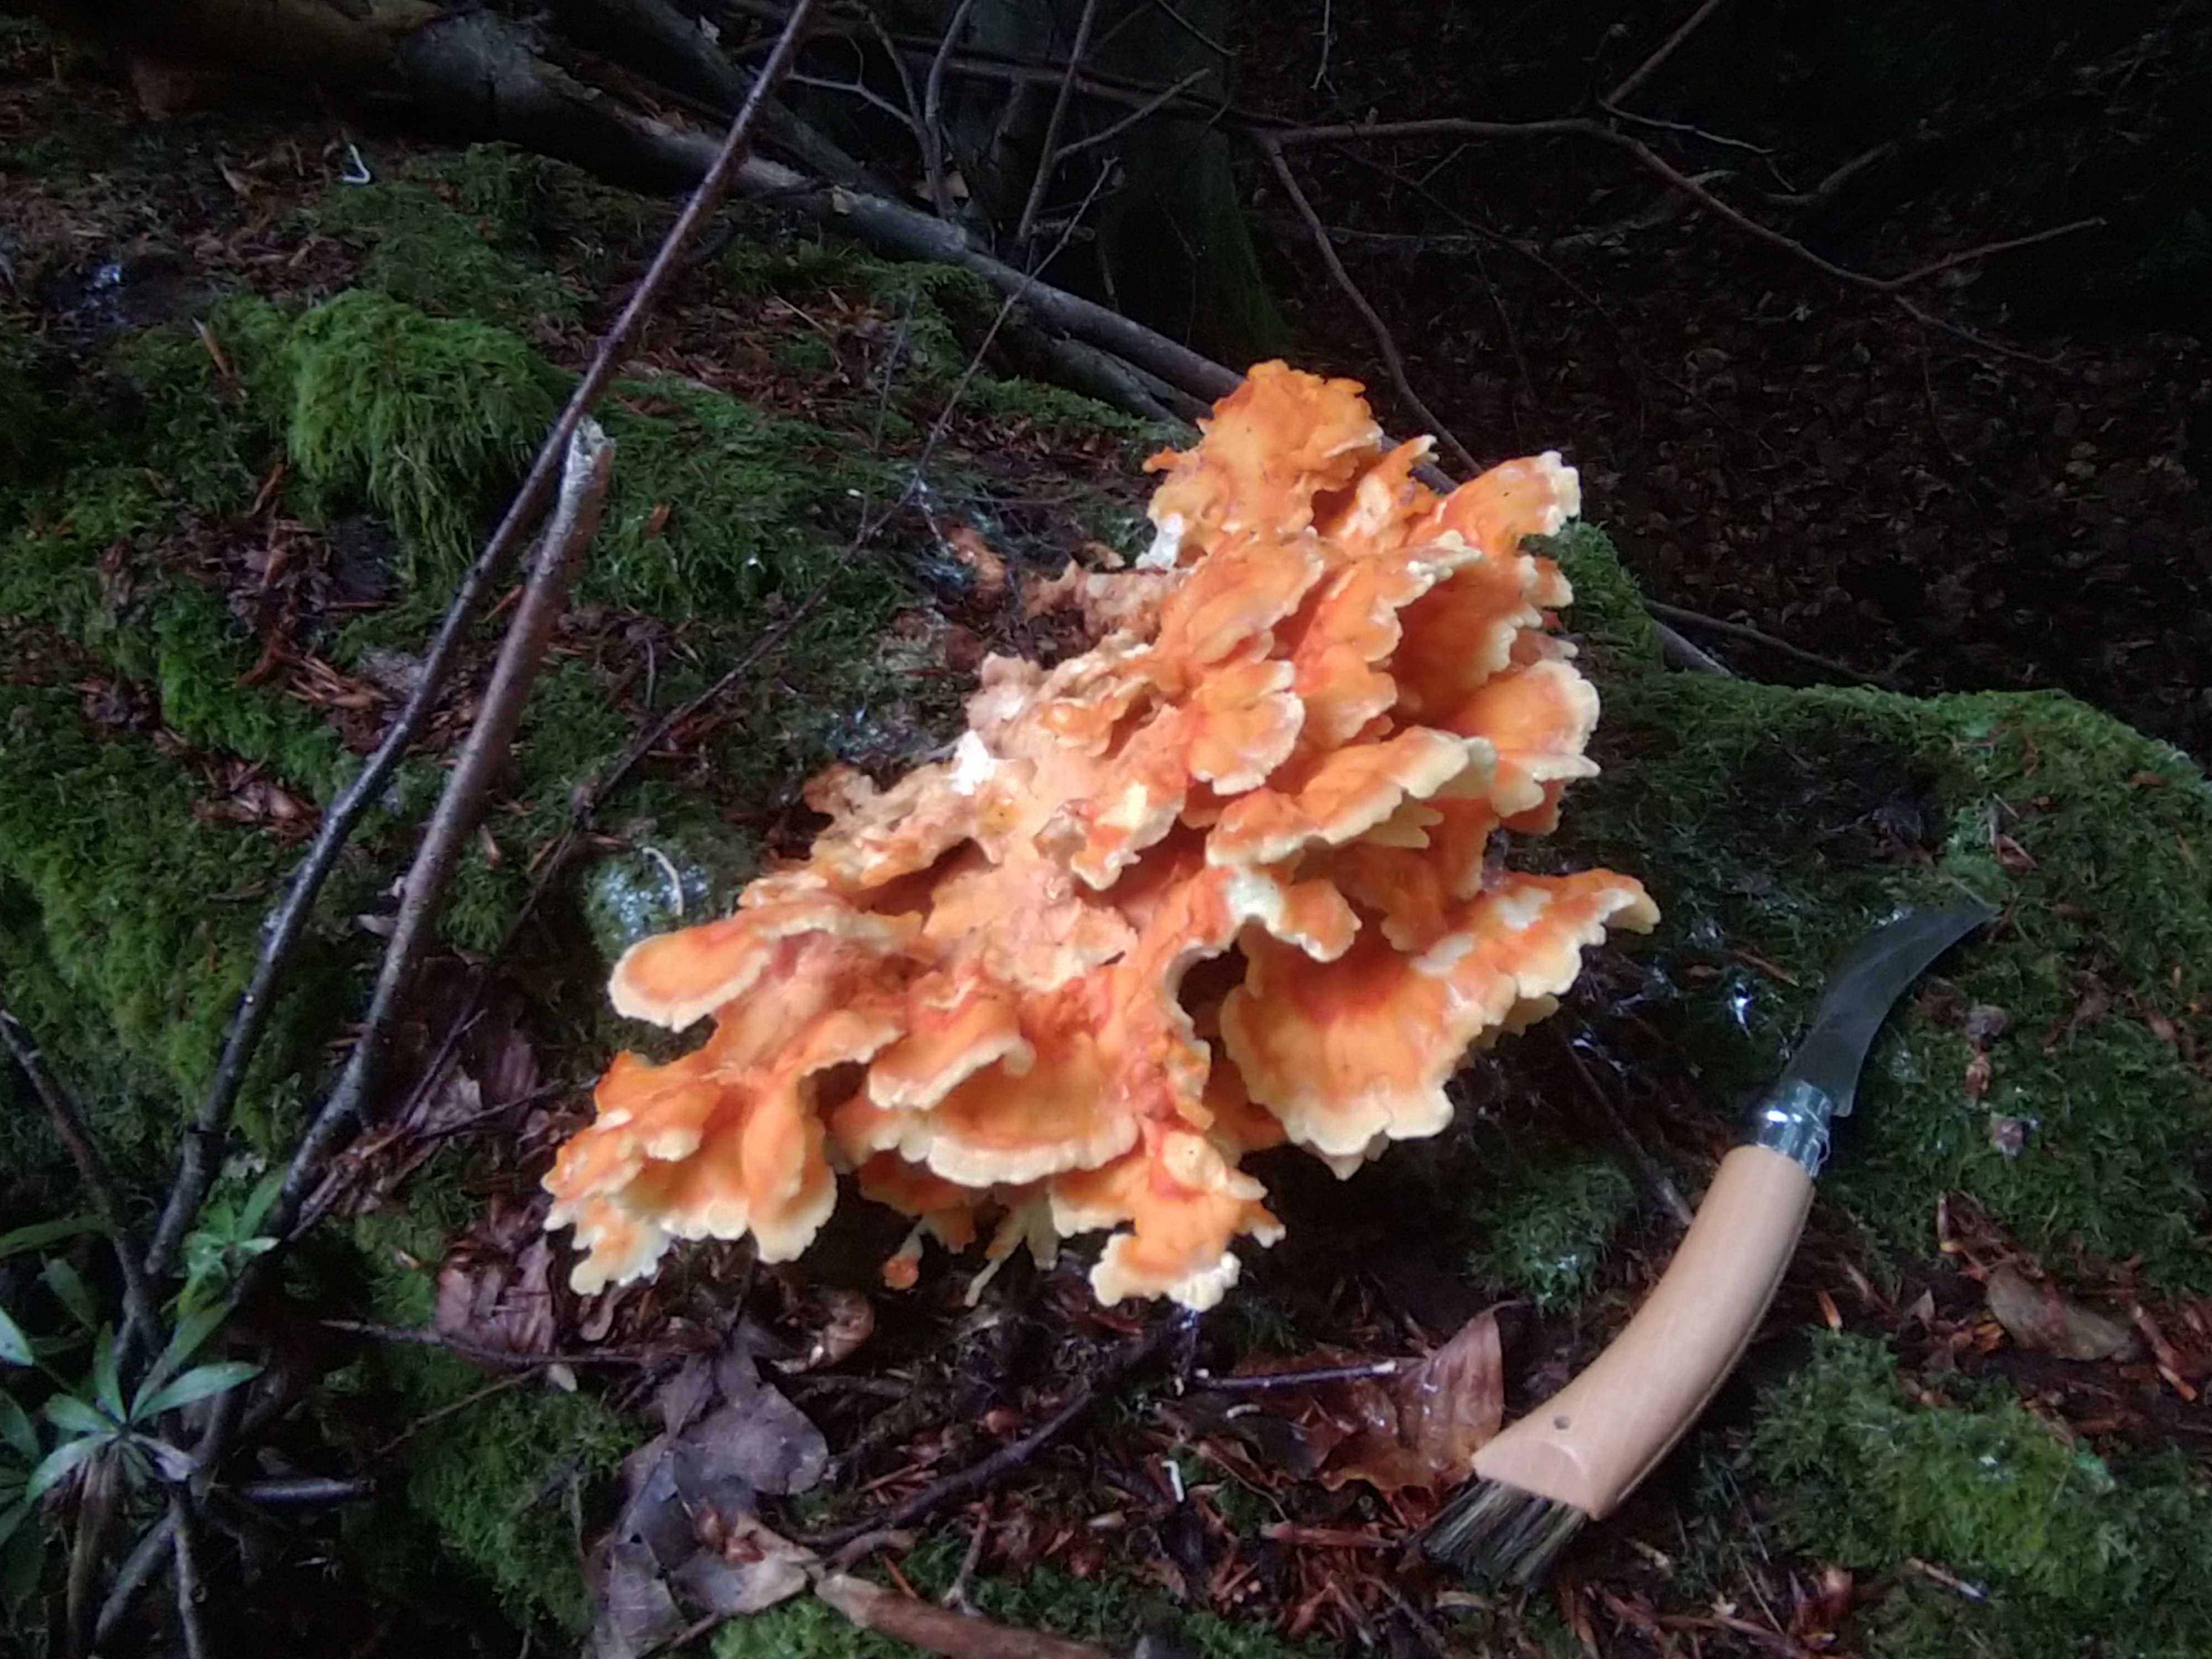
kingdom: Fungi
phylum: Basidiomycota
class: Agaricomycetes
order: Polyporales
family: Laetiporaceae
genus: Laetiporus
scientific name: Laetiporus sulphureus
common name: svovlporesvamp
